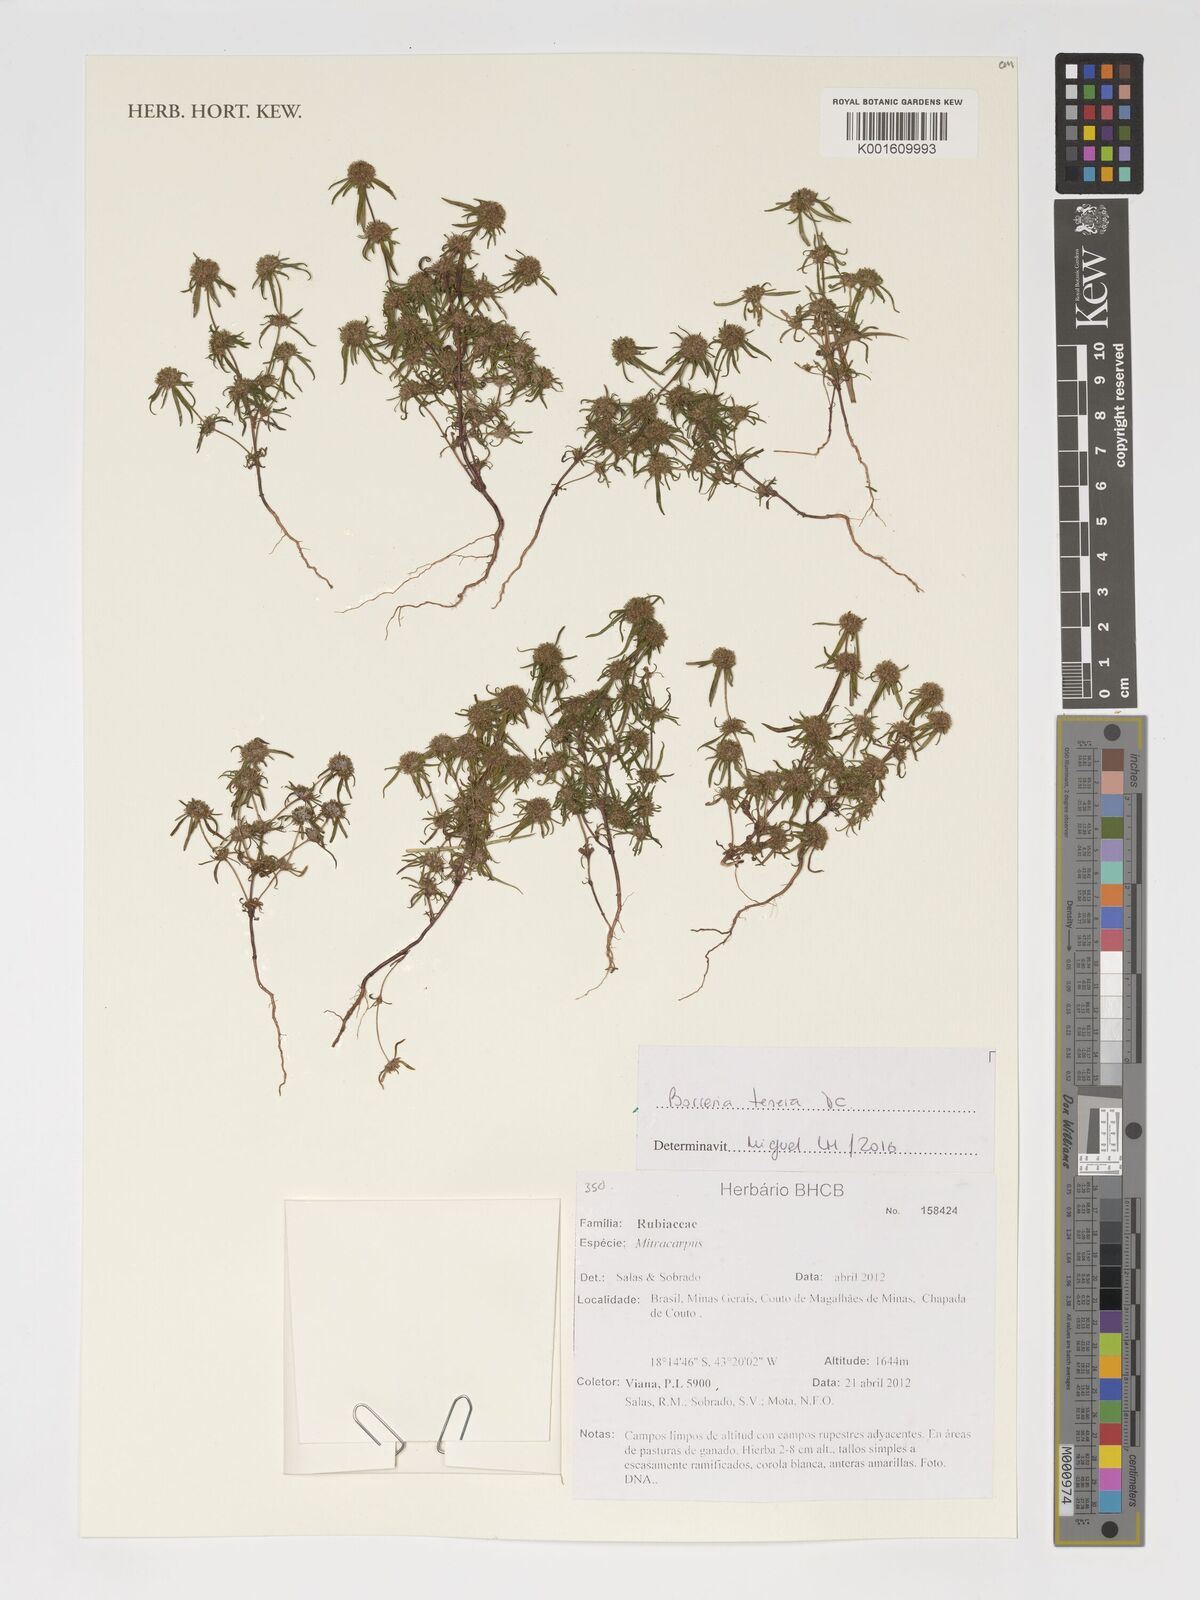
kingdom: Plantae
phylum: Tracheophyta
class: Magnoliopsida
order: Gentianales
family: Rubiaceae
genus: Spermacoce
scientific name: Spermacoce pohliana
